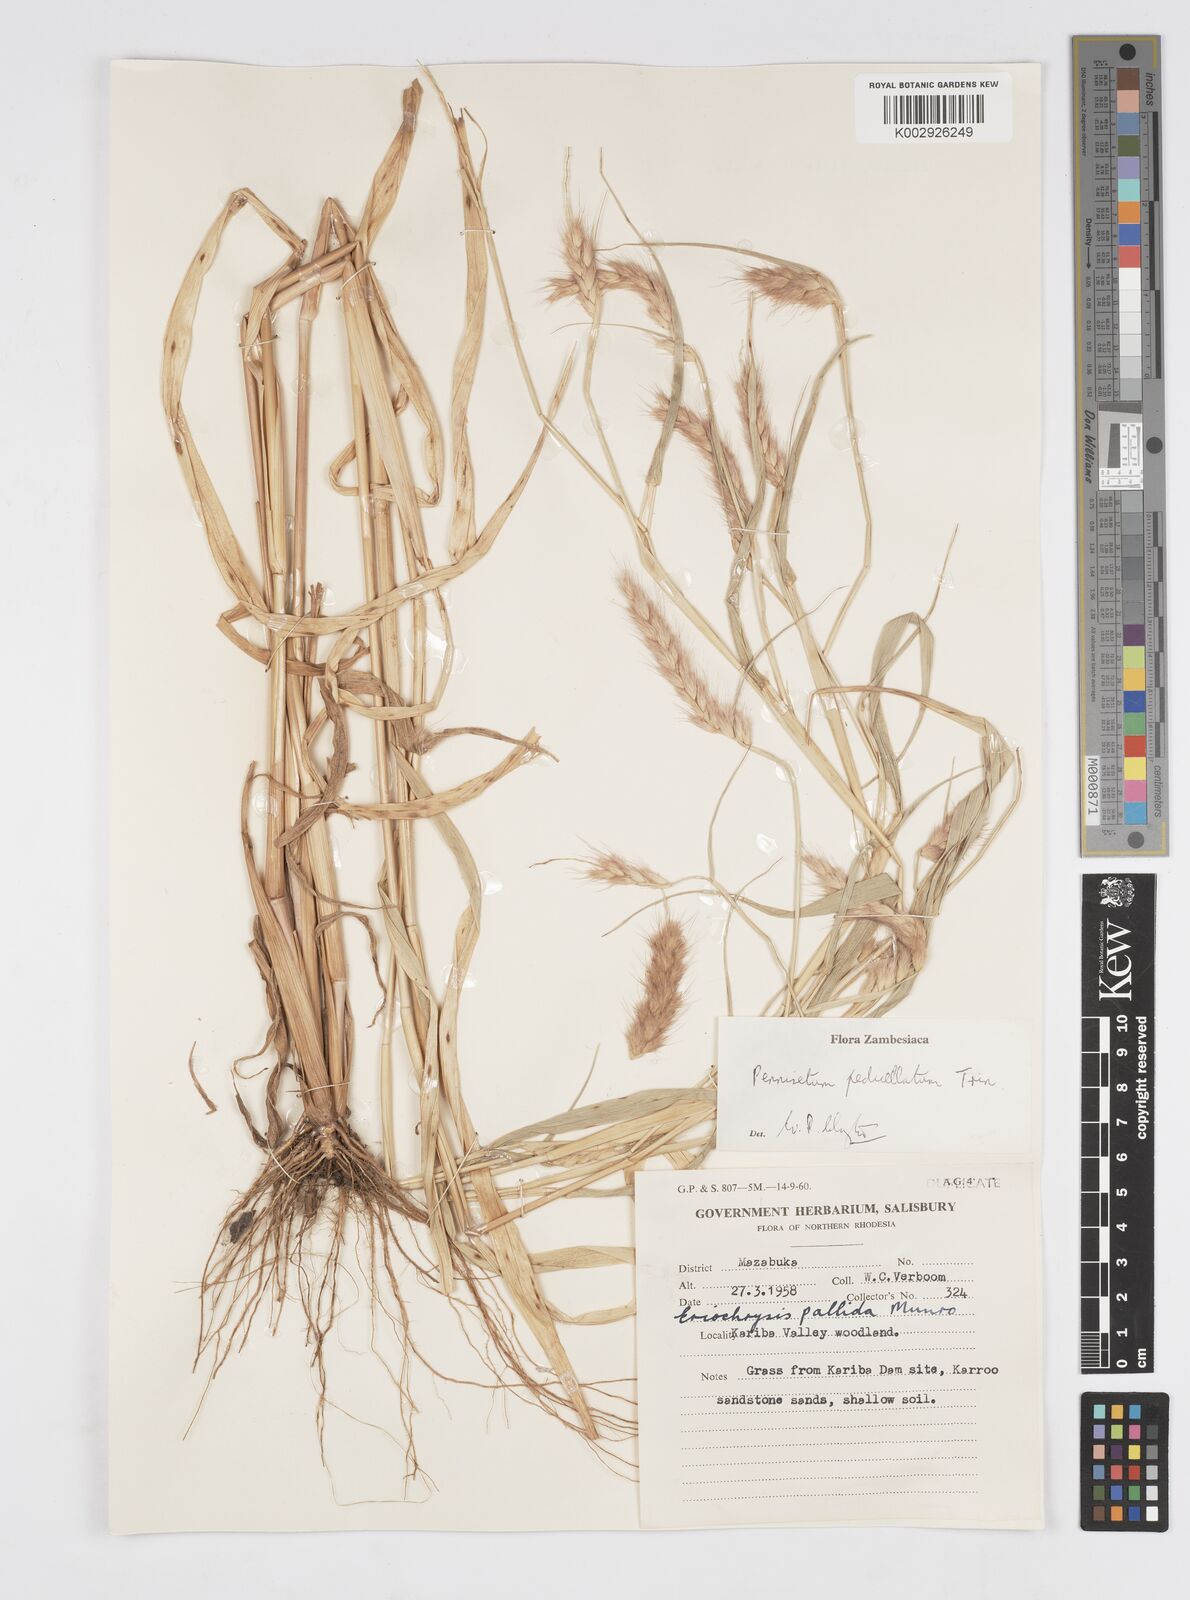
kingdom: Plantae
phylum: Tracheophyta
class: Liliopsida
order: Poales
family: Poaceae
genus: Cenchrus
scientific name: Cenchrus pedicellatus
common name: Hairy fountain grass
